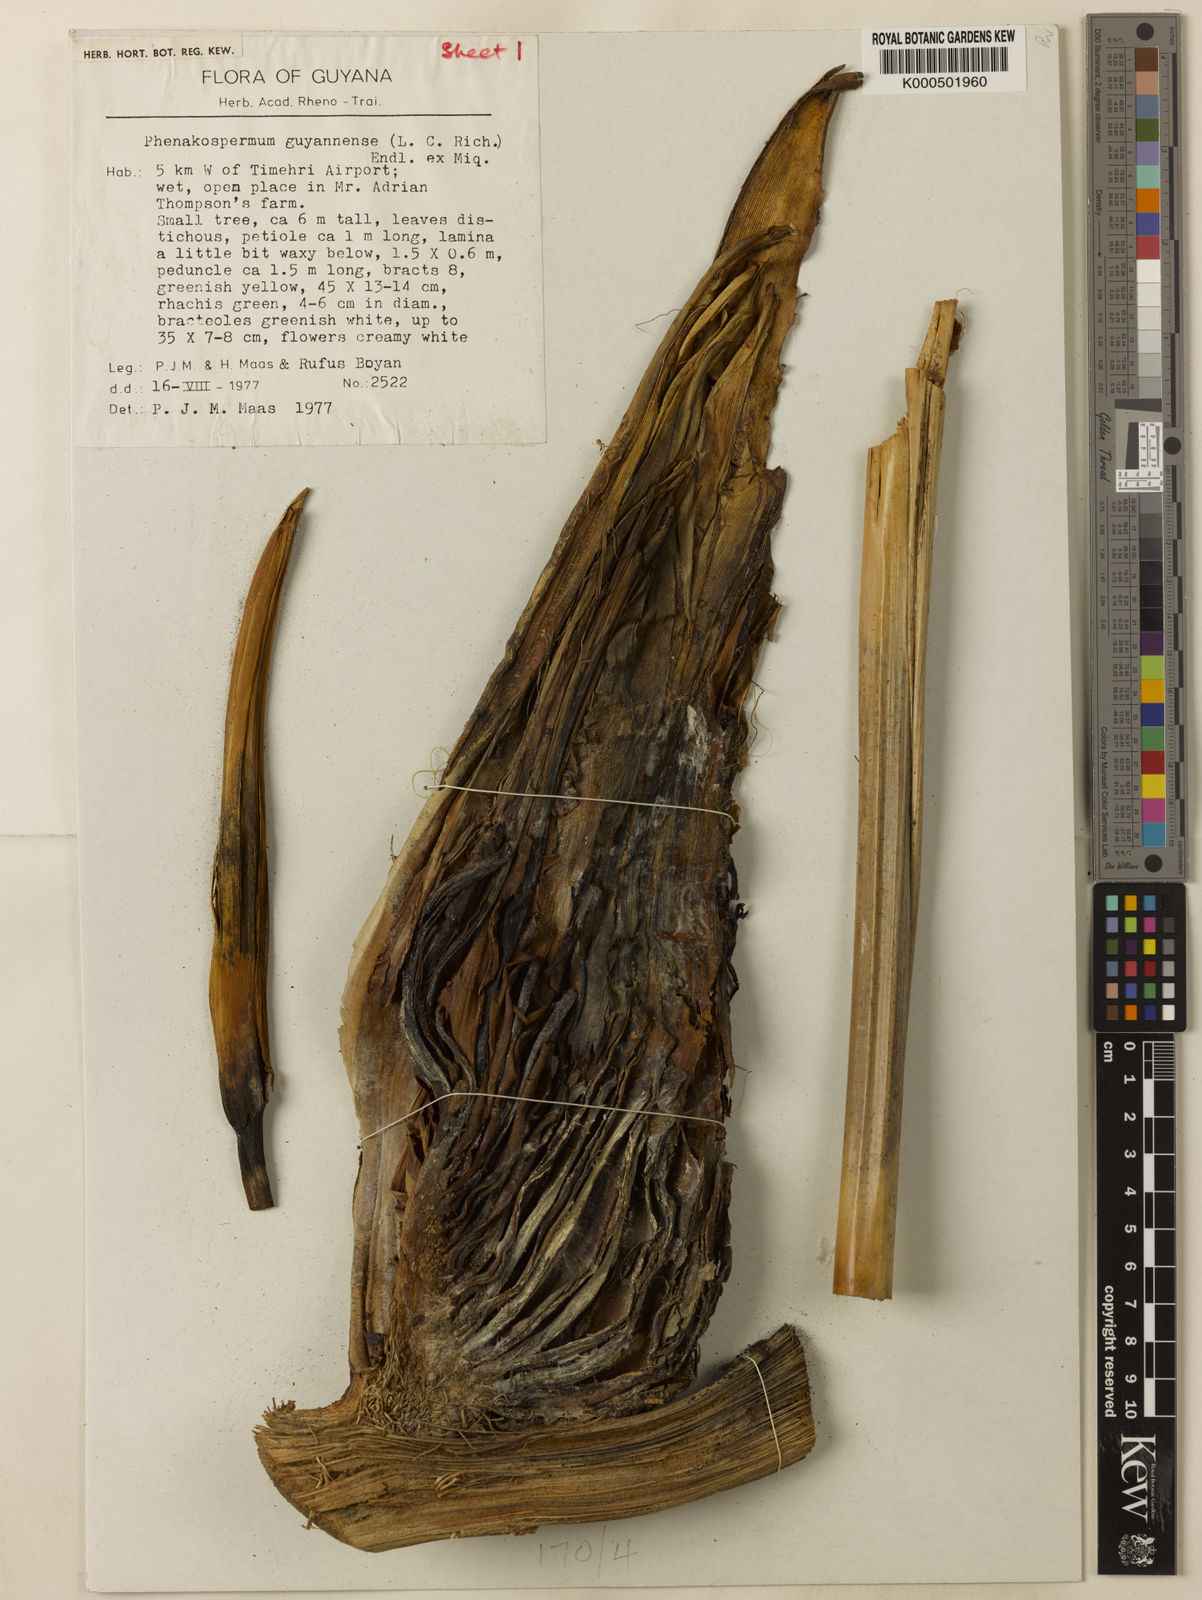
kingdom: Plantae
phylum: Tracheophyta
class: Liliopsida
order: Zingiberales
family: Strelitziaceae
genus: Phenakospermum
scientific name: Phenakospermum guyannense
